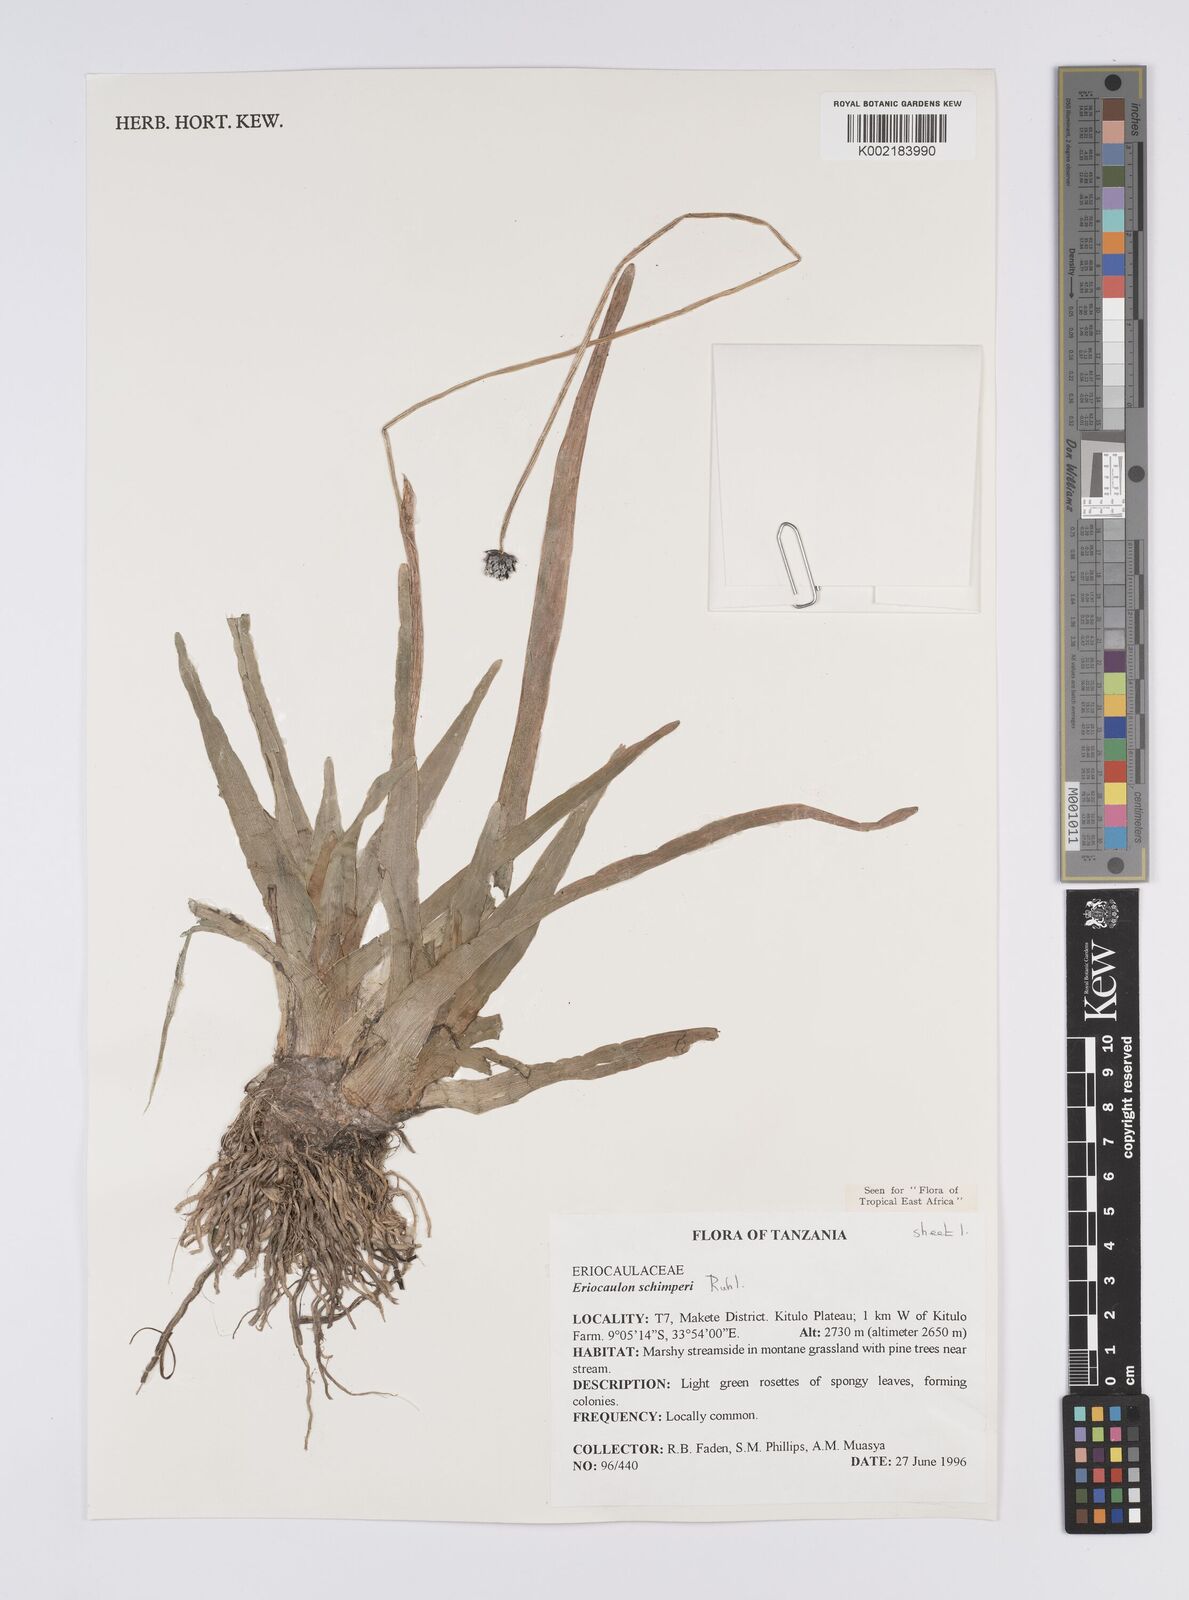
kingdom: Plantae
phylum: Tracheophyta
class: Liliopsida
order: Poales
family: Eriocaulaceae
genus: Eriocaulon
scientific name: Eriocaulon schimperi
